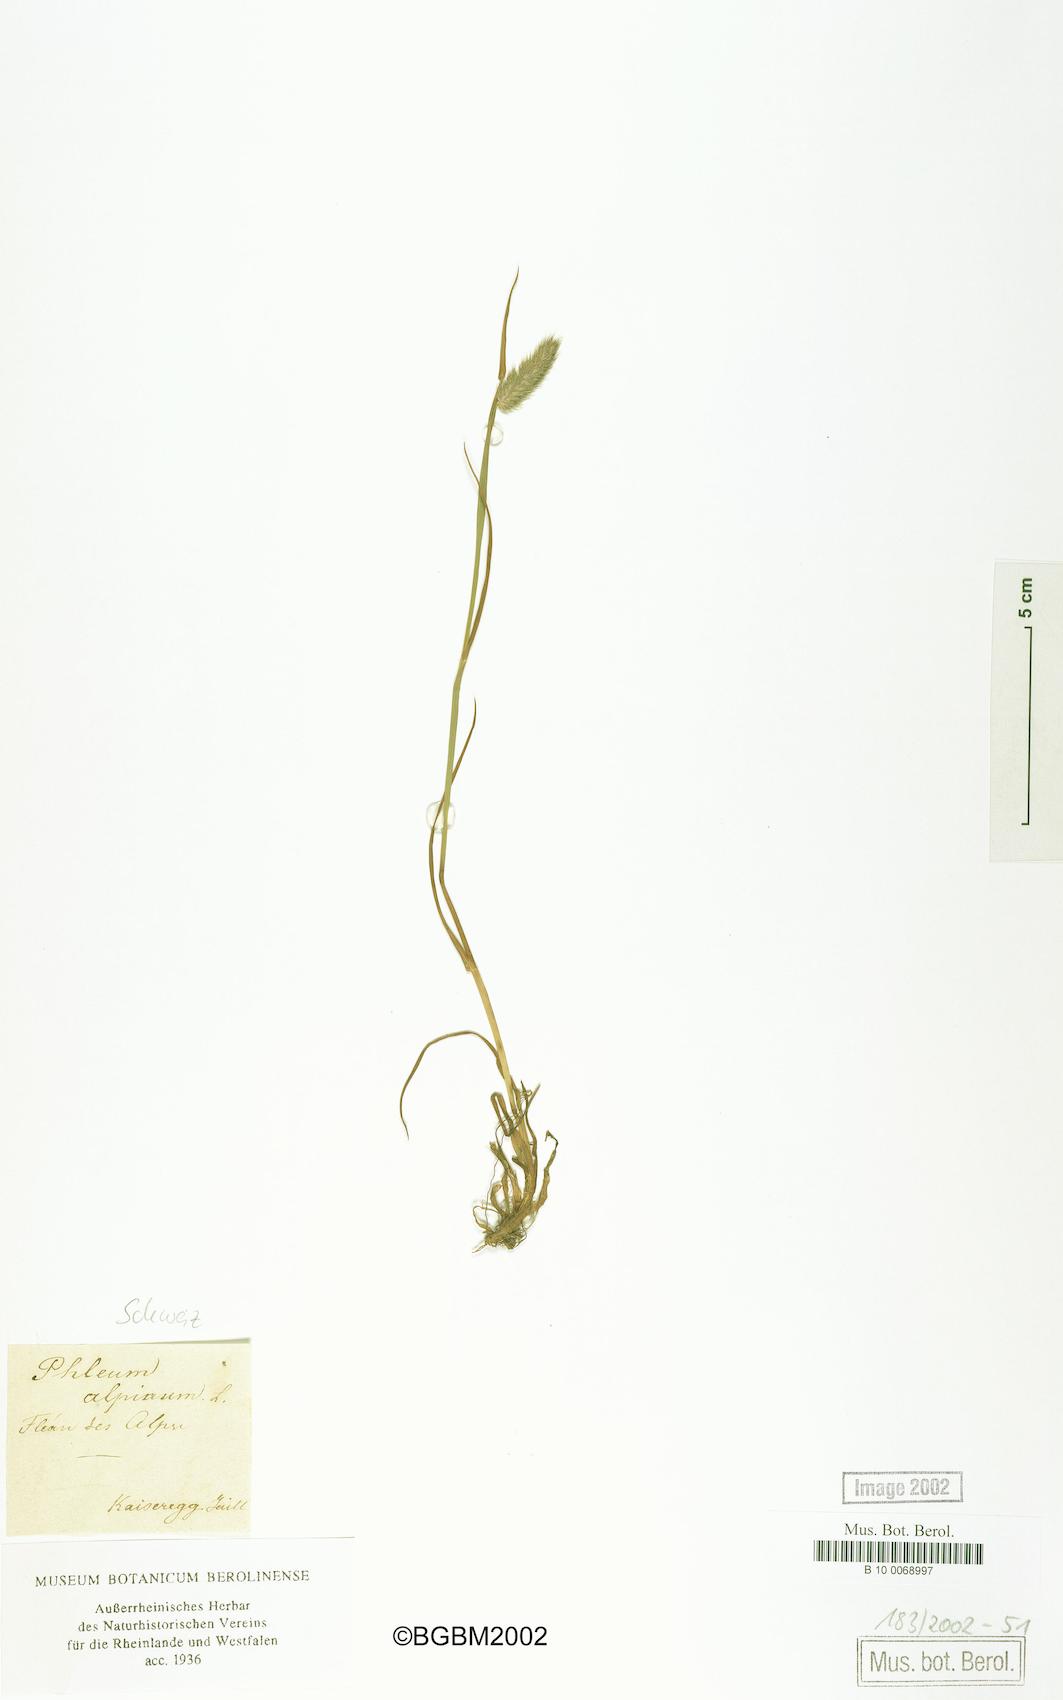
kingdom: Plantae
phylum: Tracheophyta
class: Liliopsida
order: Poales
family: Poaceae
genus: Phleum
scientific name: Phleum alpinum
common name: Alpine cat's-tail
